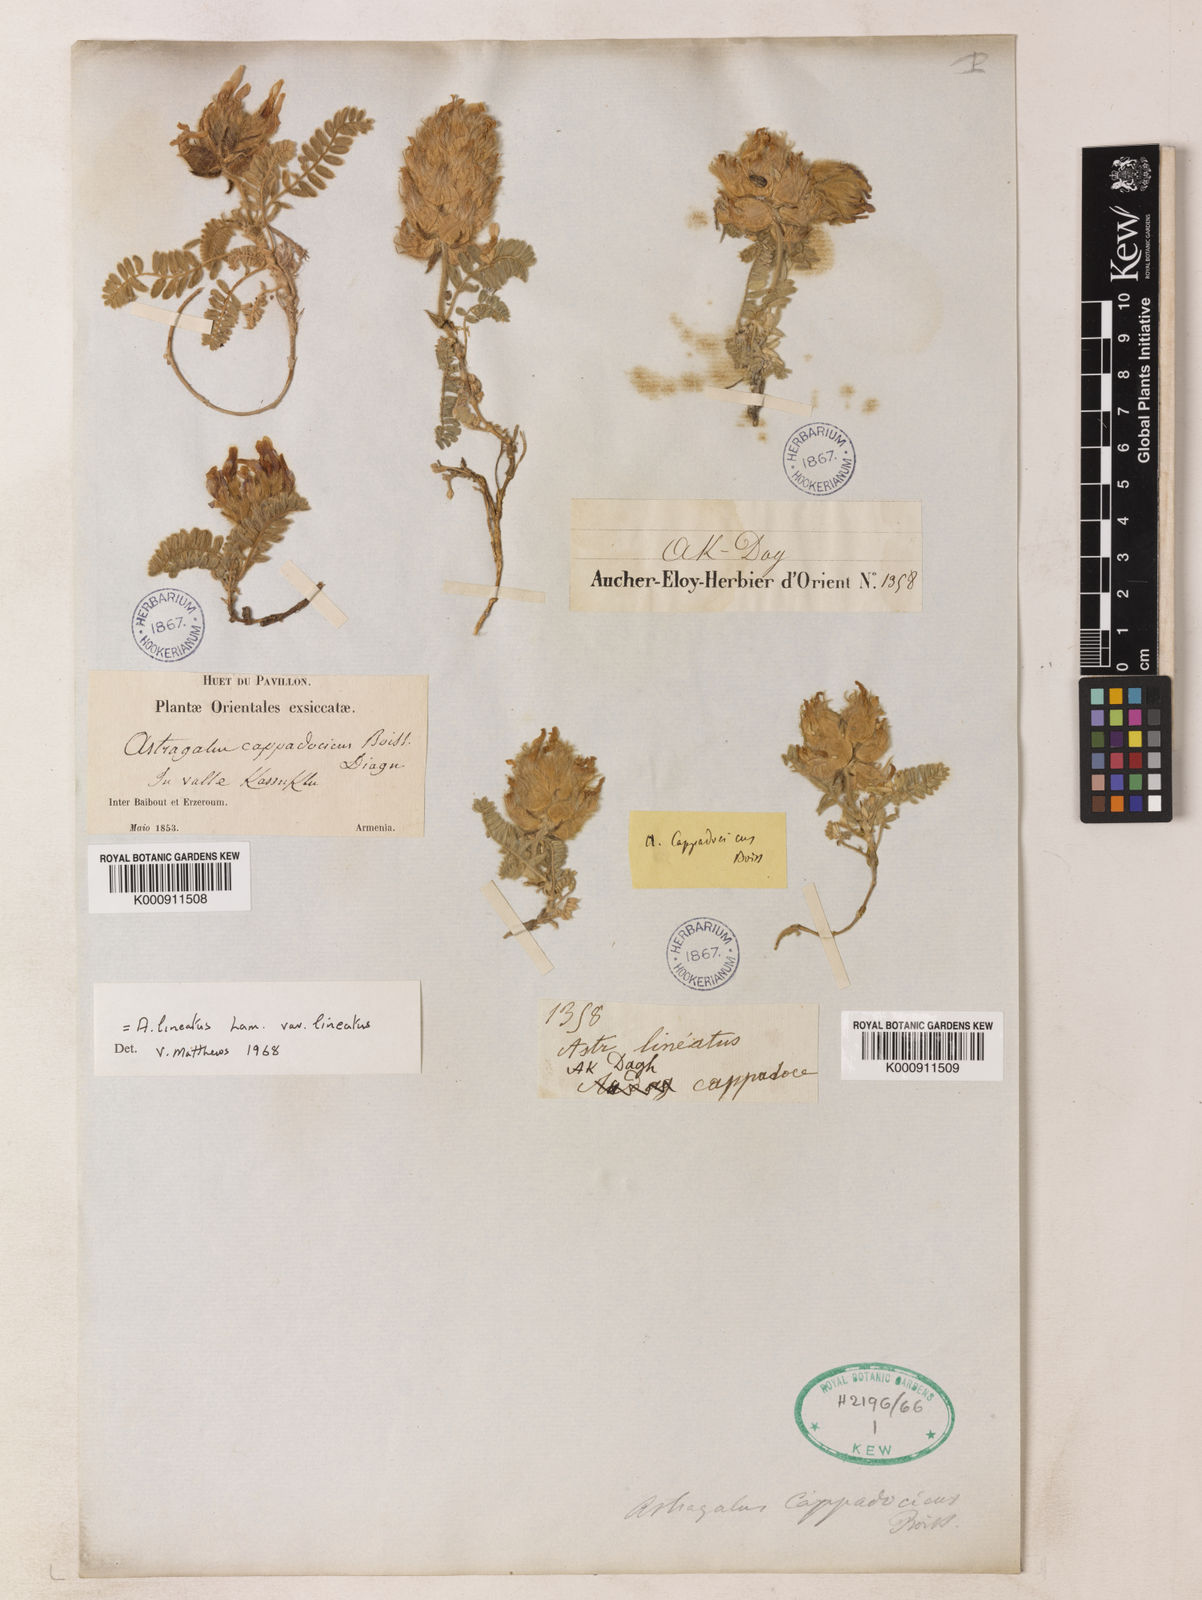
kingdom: Plantae
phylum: Tracheophyta
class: Magnoliopsida
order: Fabales
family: Fabaceae
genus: Astragalus
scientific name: Astragalus lineatus
